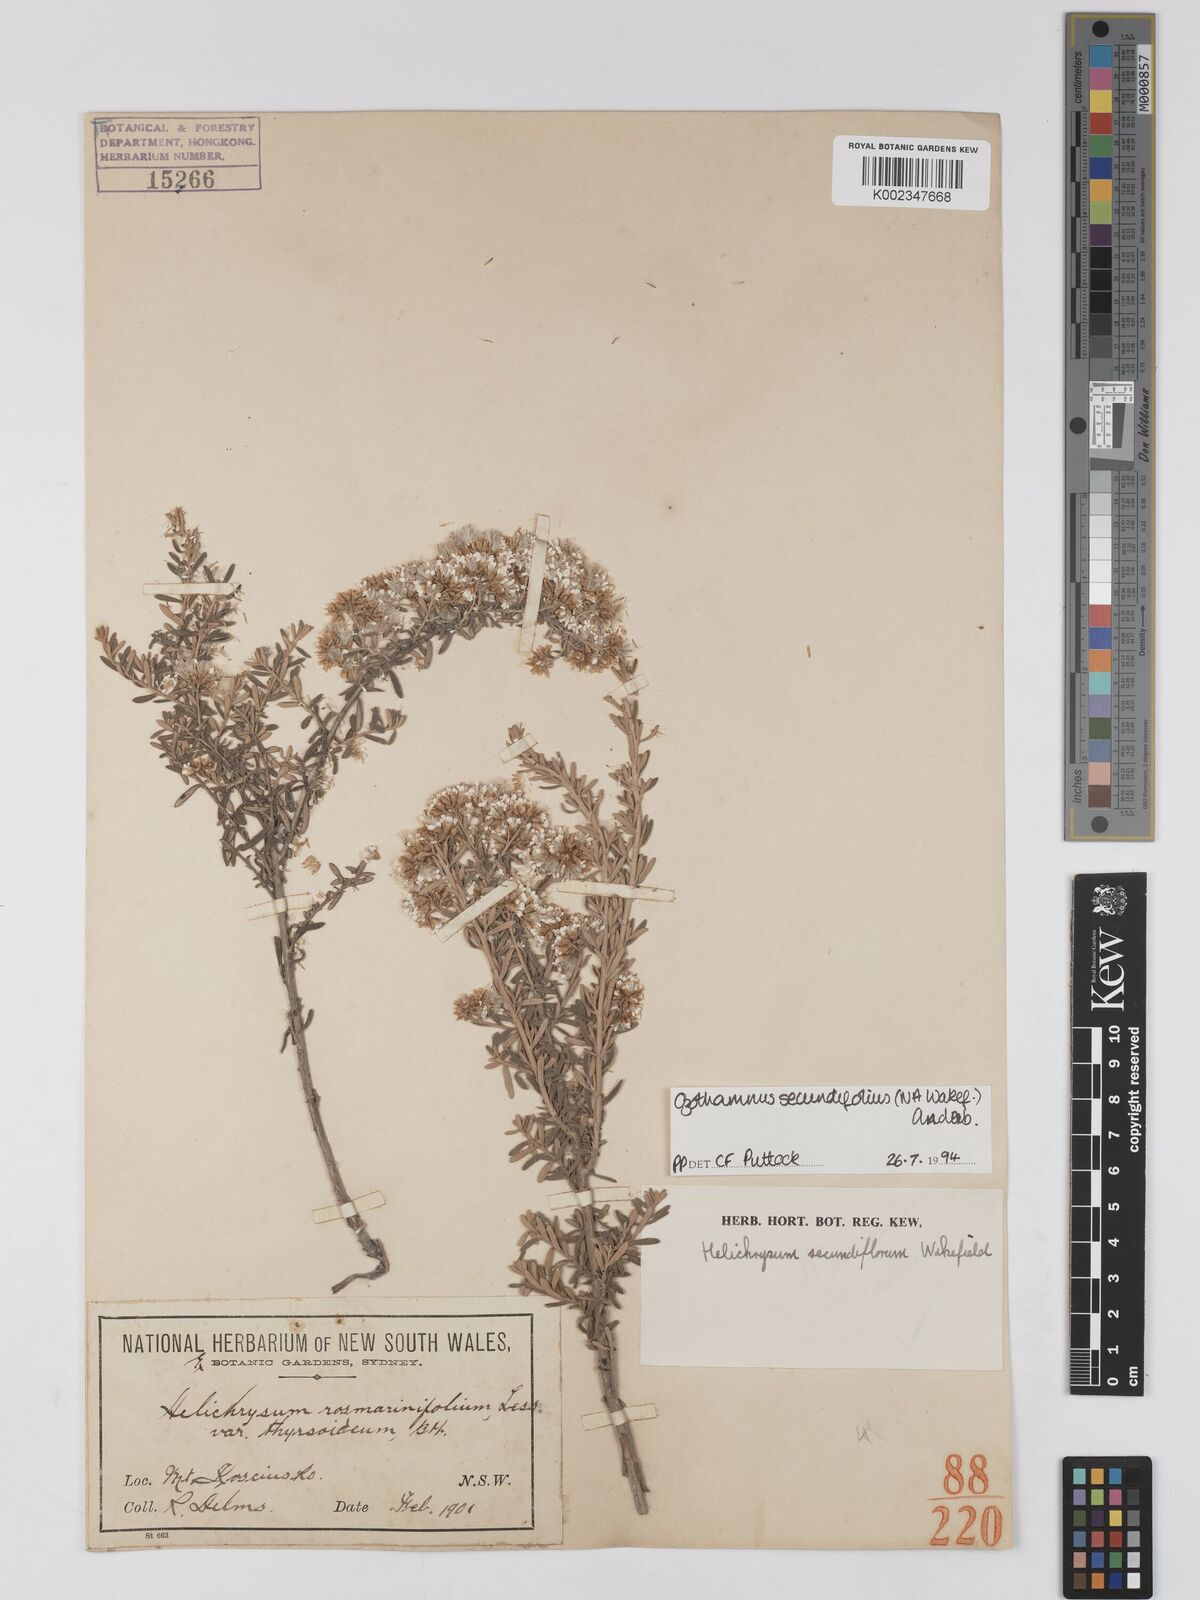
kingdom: Plantae
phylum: Tracheophyta
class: Magnoliopsida
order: Asterales
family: Asteraceae
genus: Ozothamnus
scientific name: Ozothamnus secundiflorus
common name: Cascade everlasting
